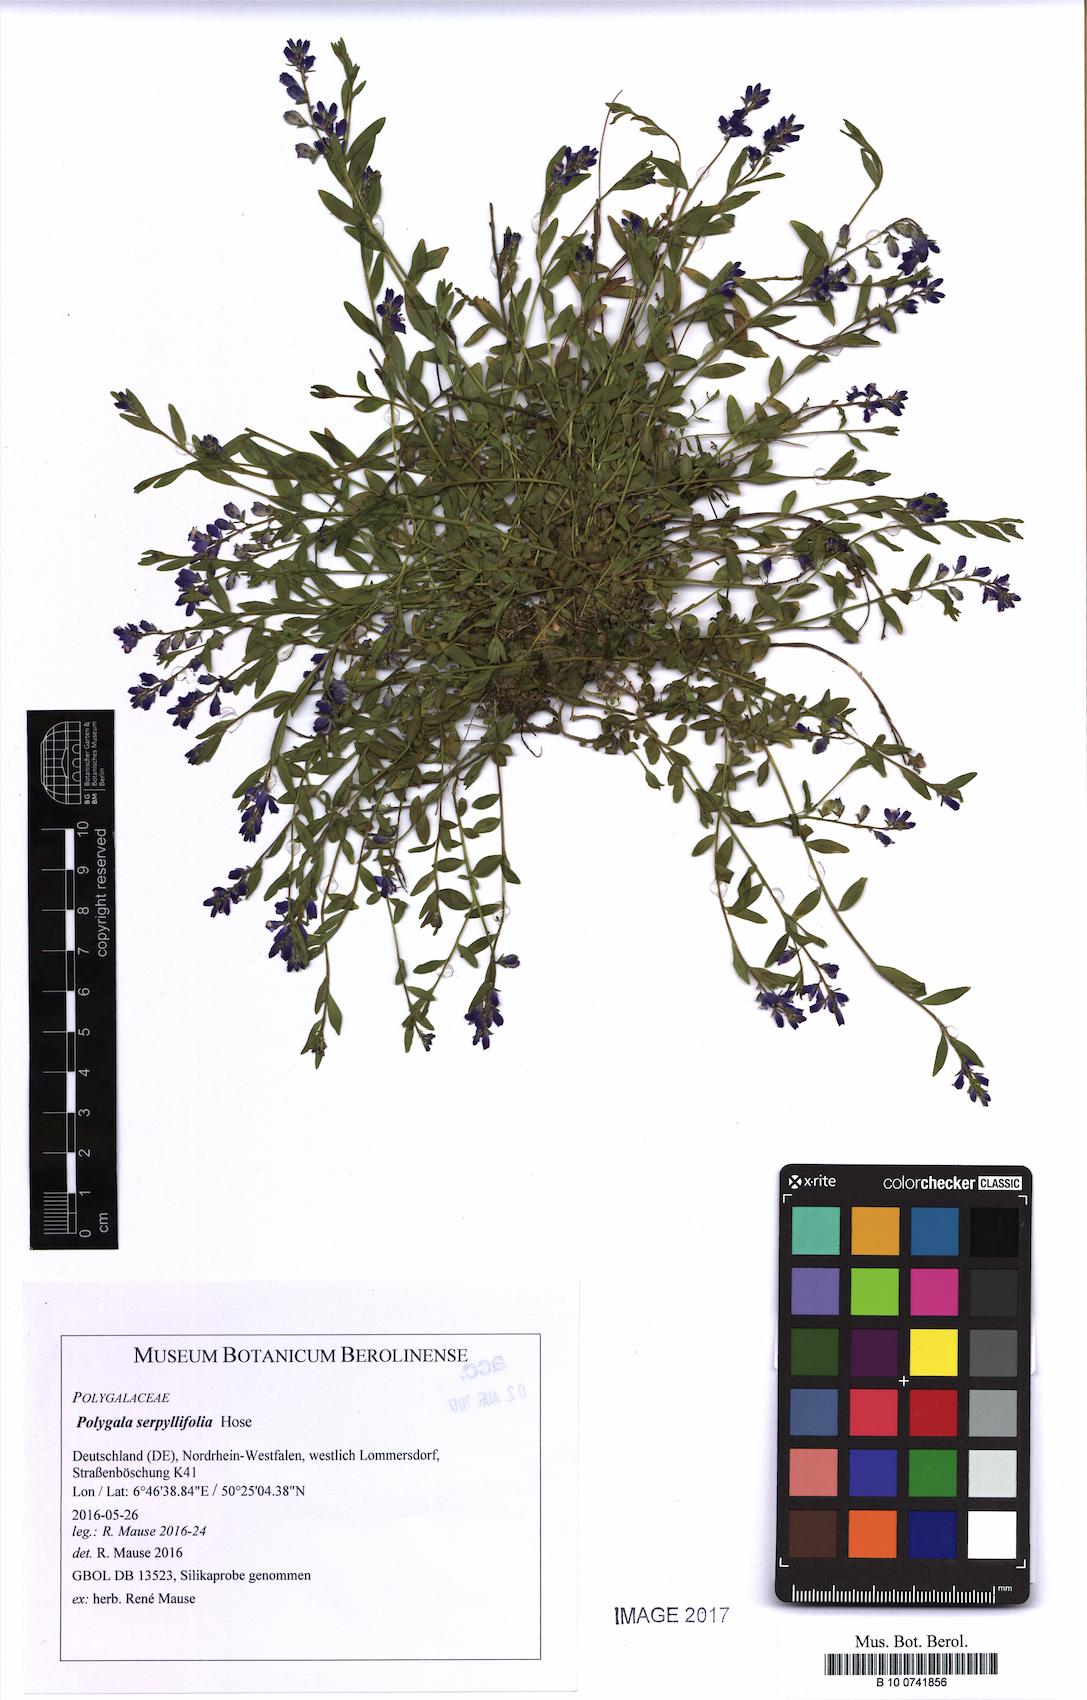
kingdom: Plantae
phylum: Tracheophyta
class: Magnoliopsida
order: Fabales
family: Polygalaceae
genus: Polygala
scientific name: Polygala serpyllifolia
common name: Heath milkwort
